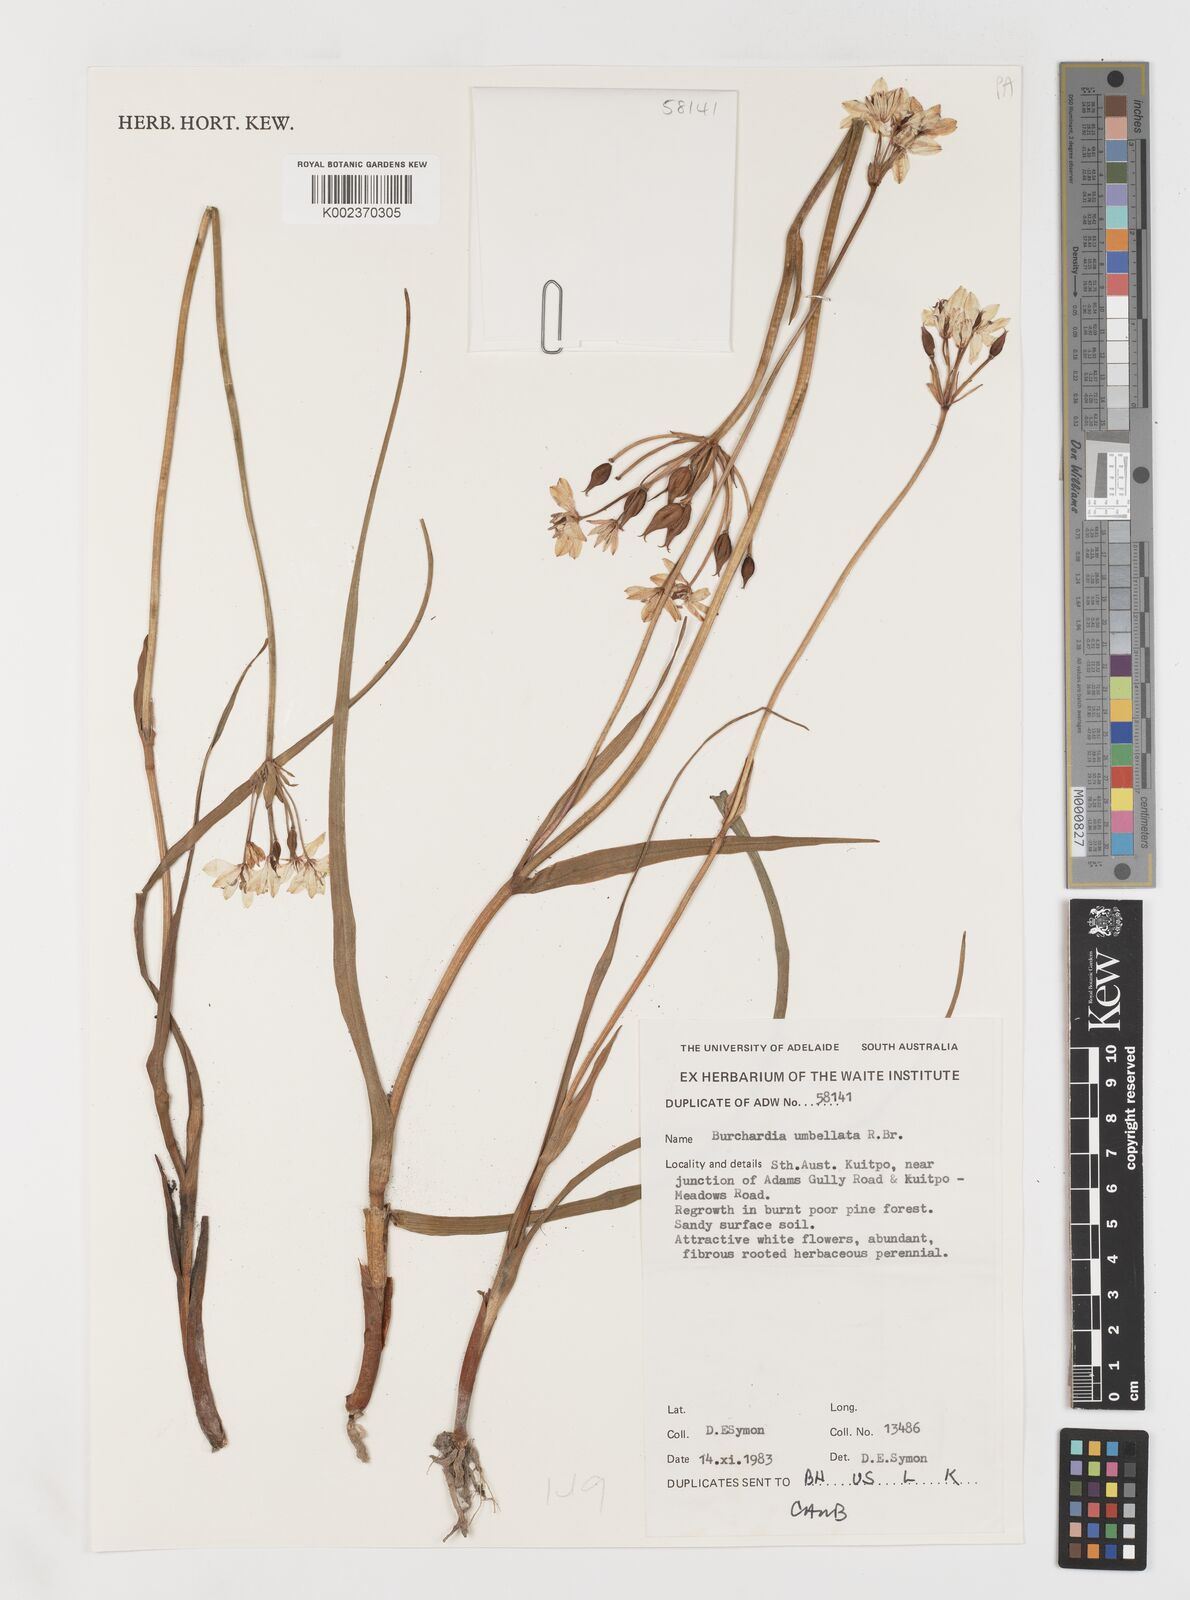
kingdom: Plantae
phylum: Tracheophyta
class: Liliopsida
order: Liliales
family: Colchicaceae
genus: Burchardia
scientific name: Burchardia umbellata
